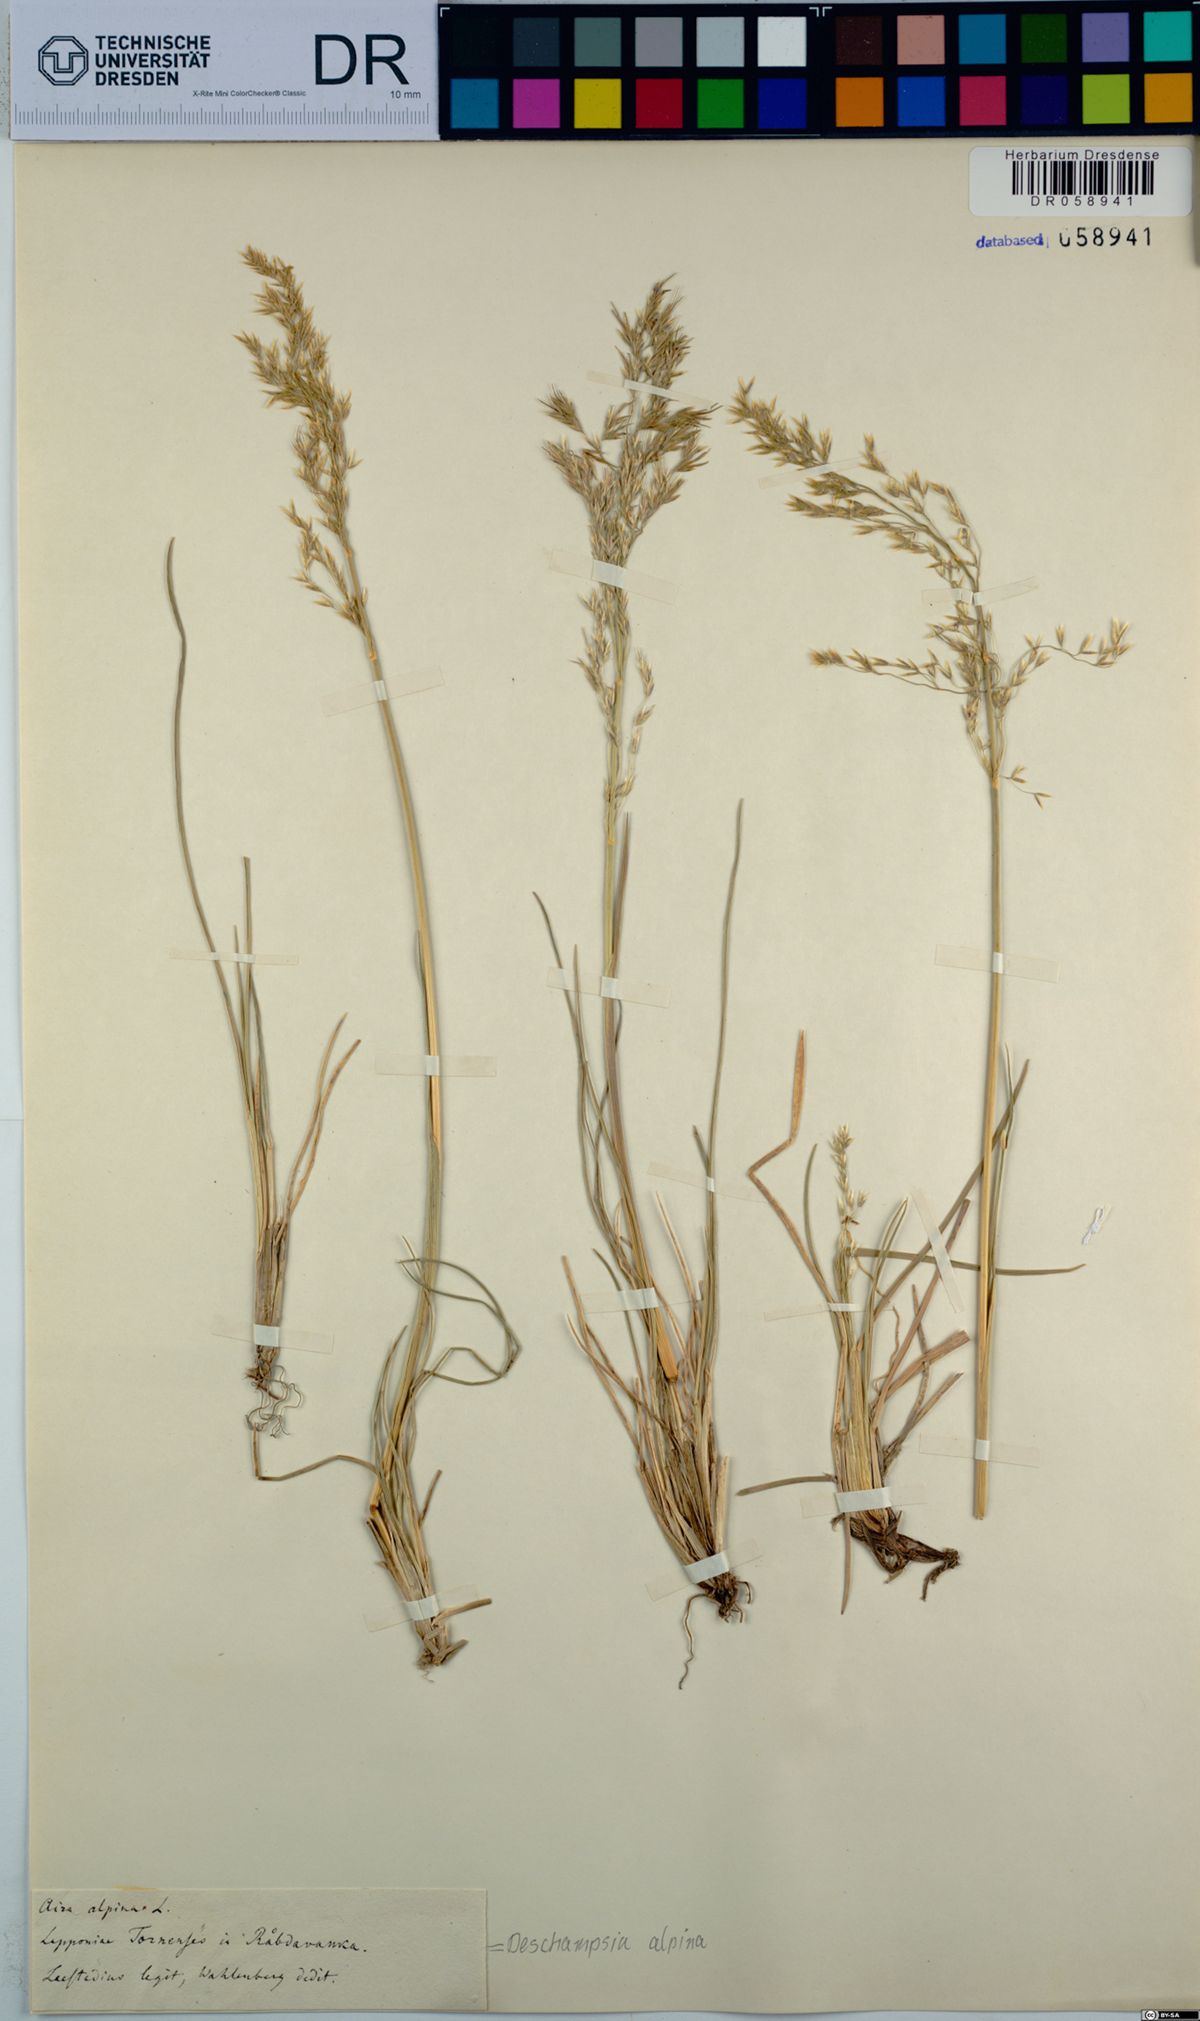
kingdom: Plantae
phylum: Tracheophyta
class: Liliopsida
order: Poales
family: Poaceae
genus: Deschampsia
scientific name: Deschampsia cespitosa
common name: Tufted hair-grass
